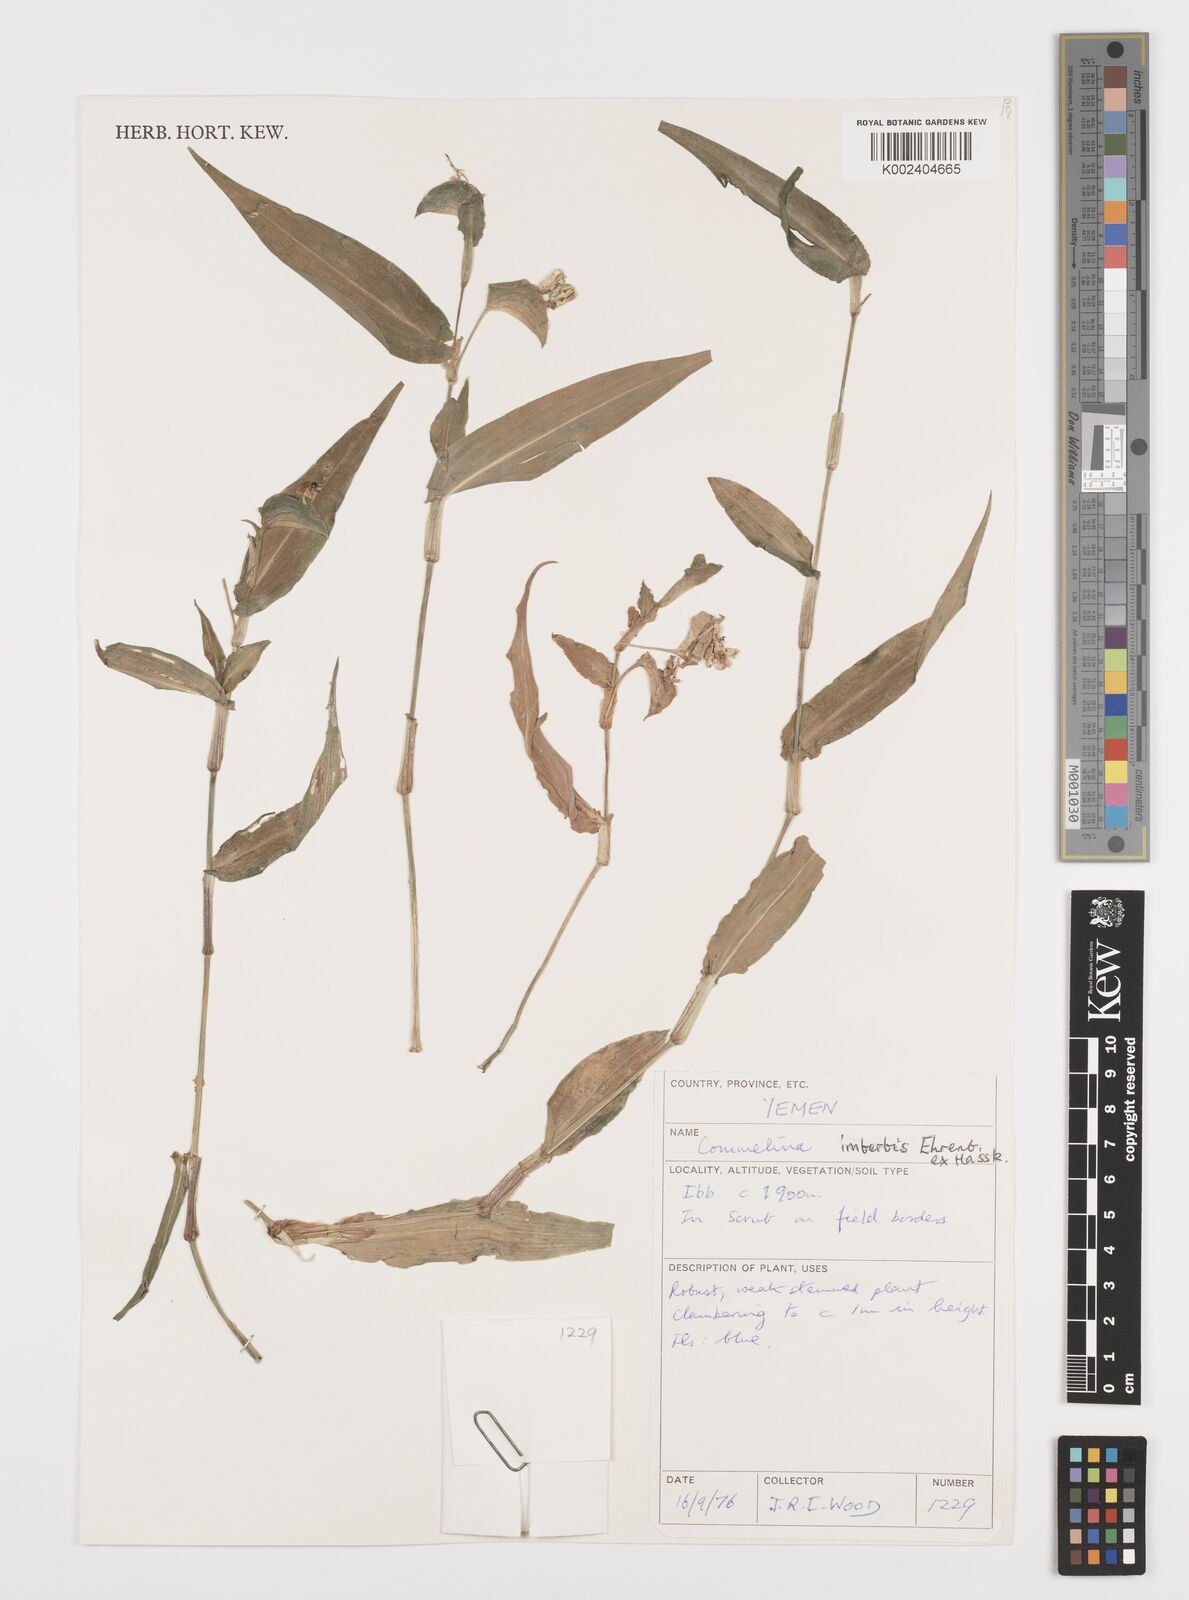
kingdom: Plantae
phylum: Tracheophyta
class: Liliopsida
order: Commelinales
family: Commelinaceae
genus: Commelina
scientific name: Commelina imberbis
